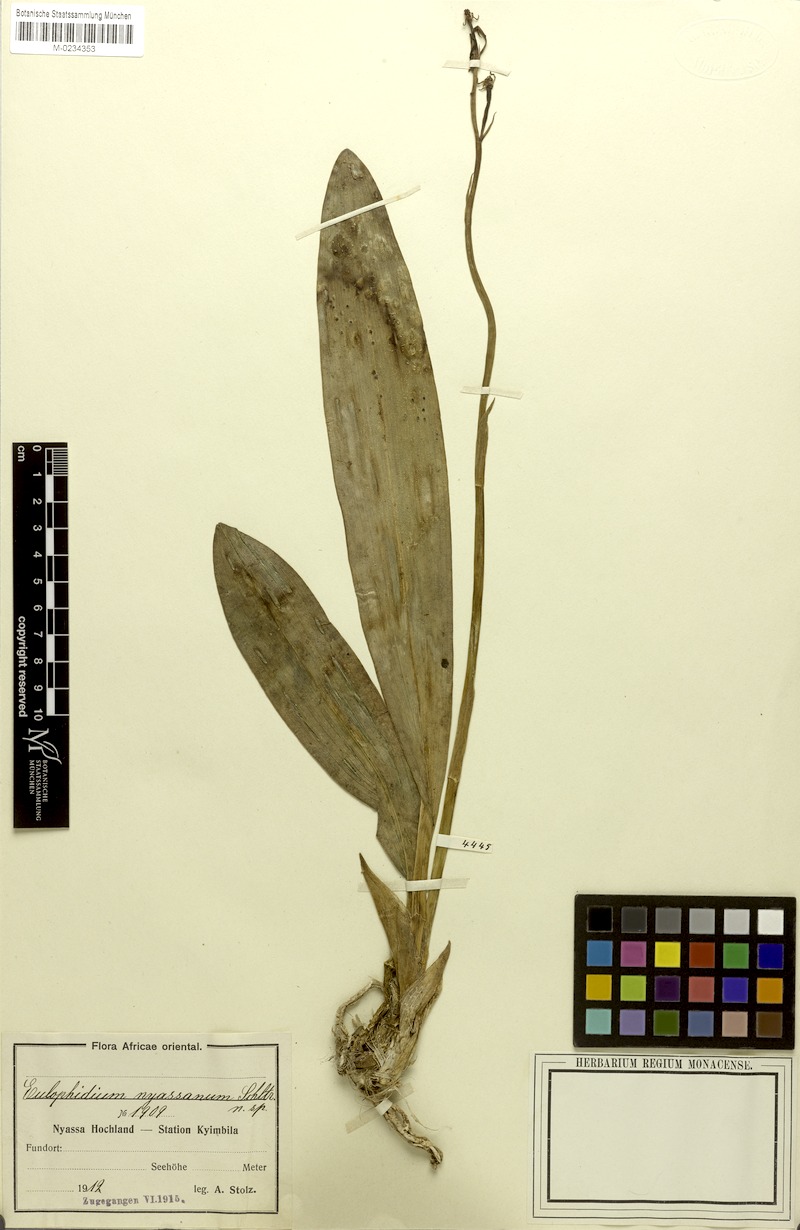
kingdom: Plantae
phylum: Tracheophyta
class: Liliopsida
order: Asparagales
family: Orchidaceae
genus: Eulophia
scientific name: Eulophia maculata
